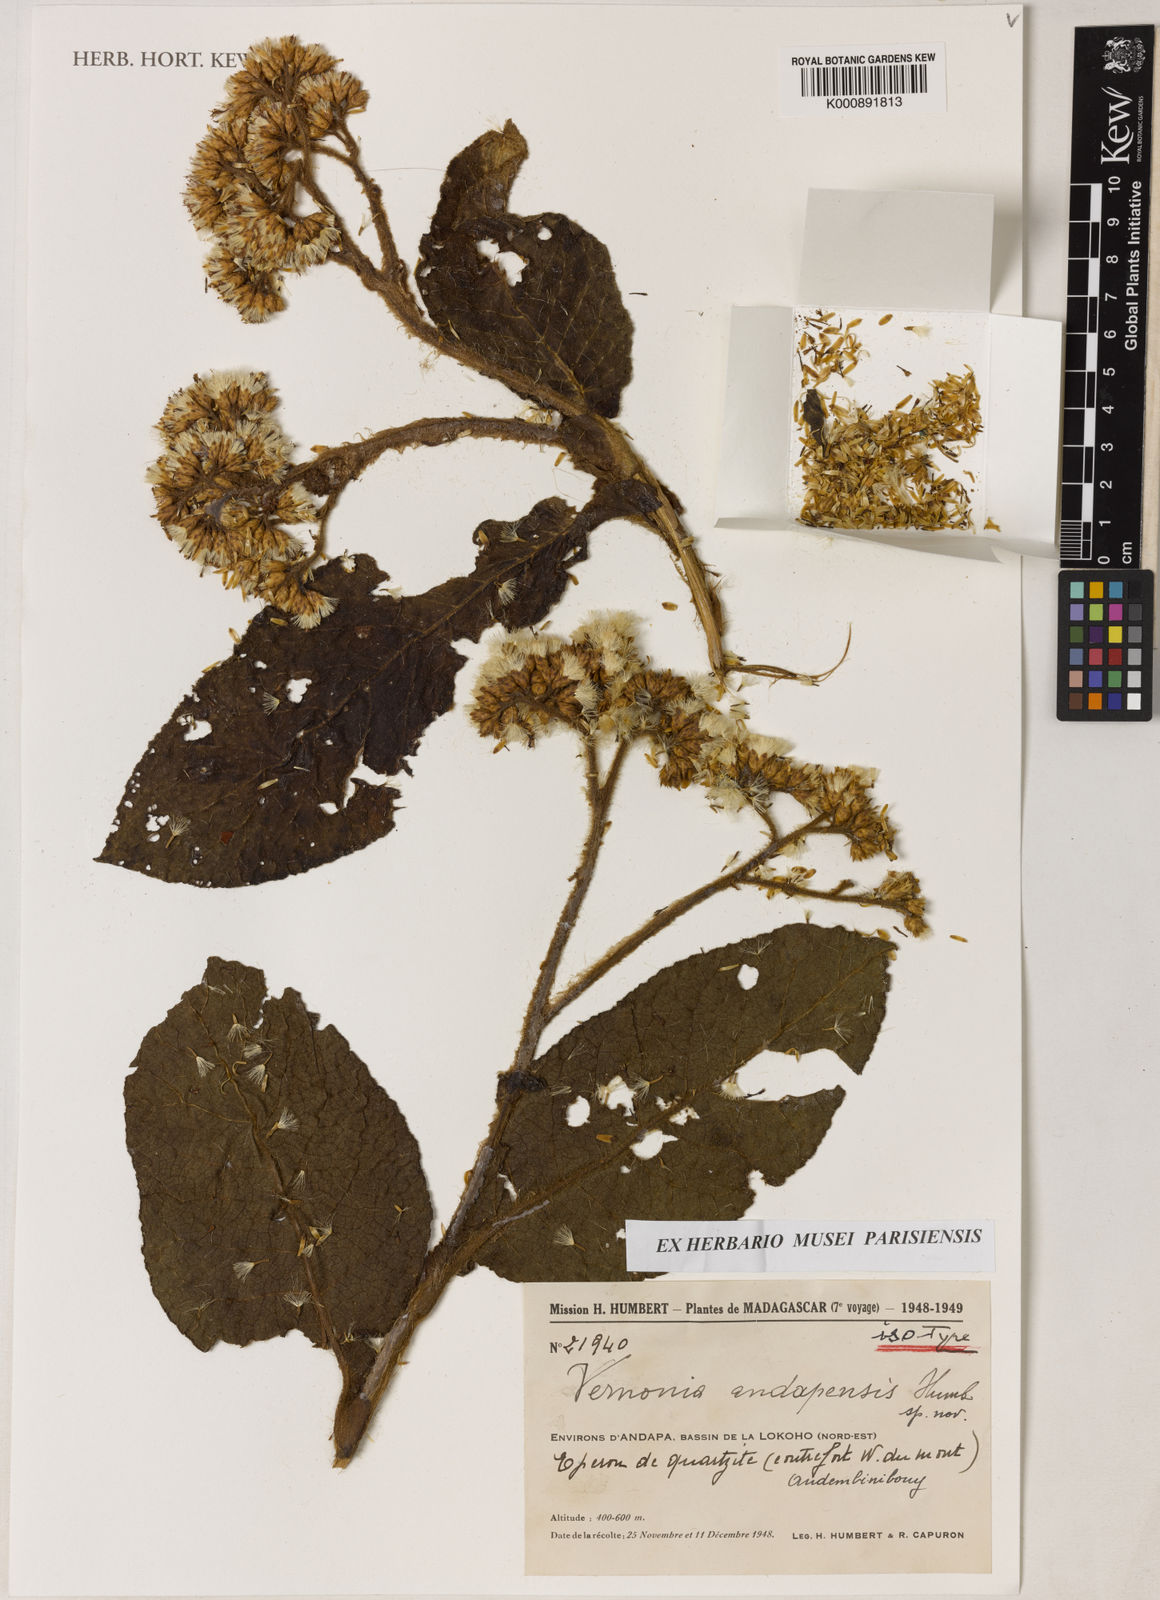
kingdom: Plantae
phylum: Tracheophyta
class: Magnoliopsida
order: Asterales
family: Asteraceae
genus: Vernonia
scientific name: Vernonia andapensis
